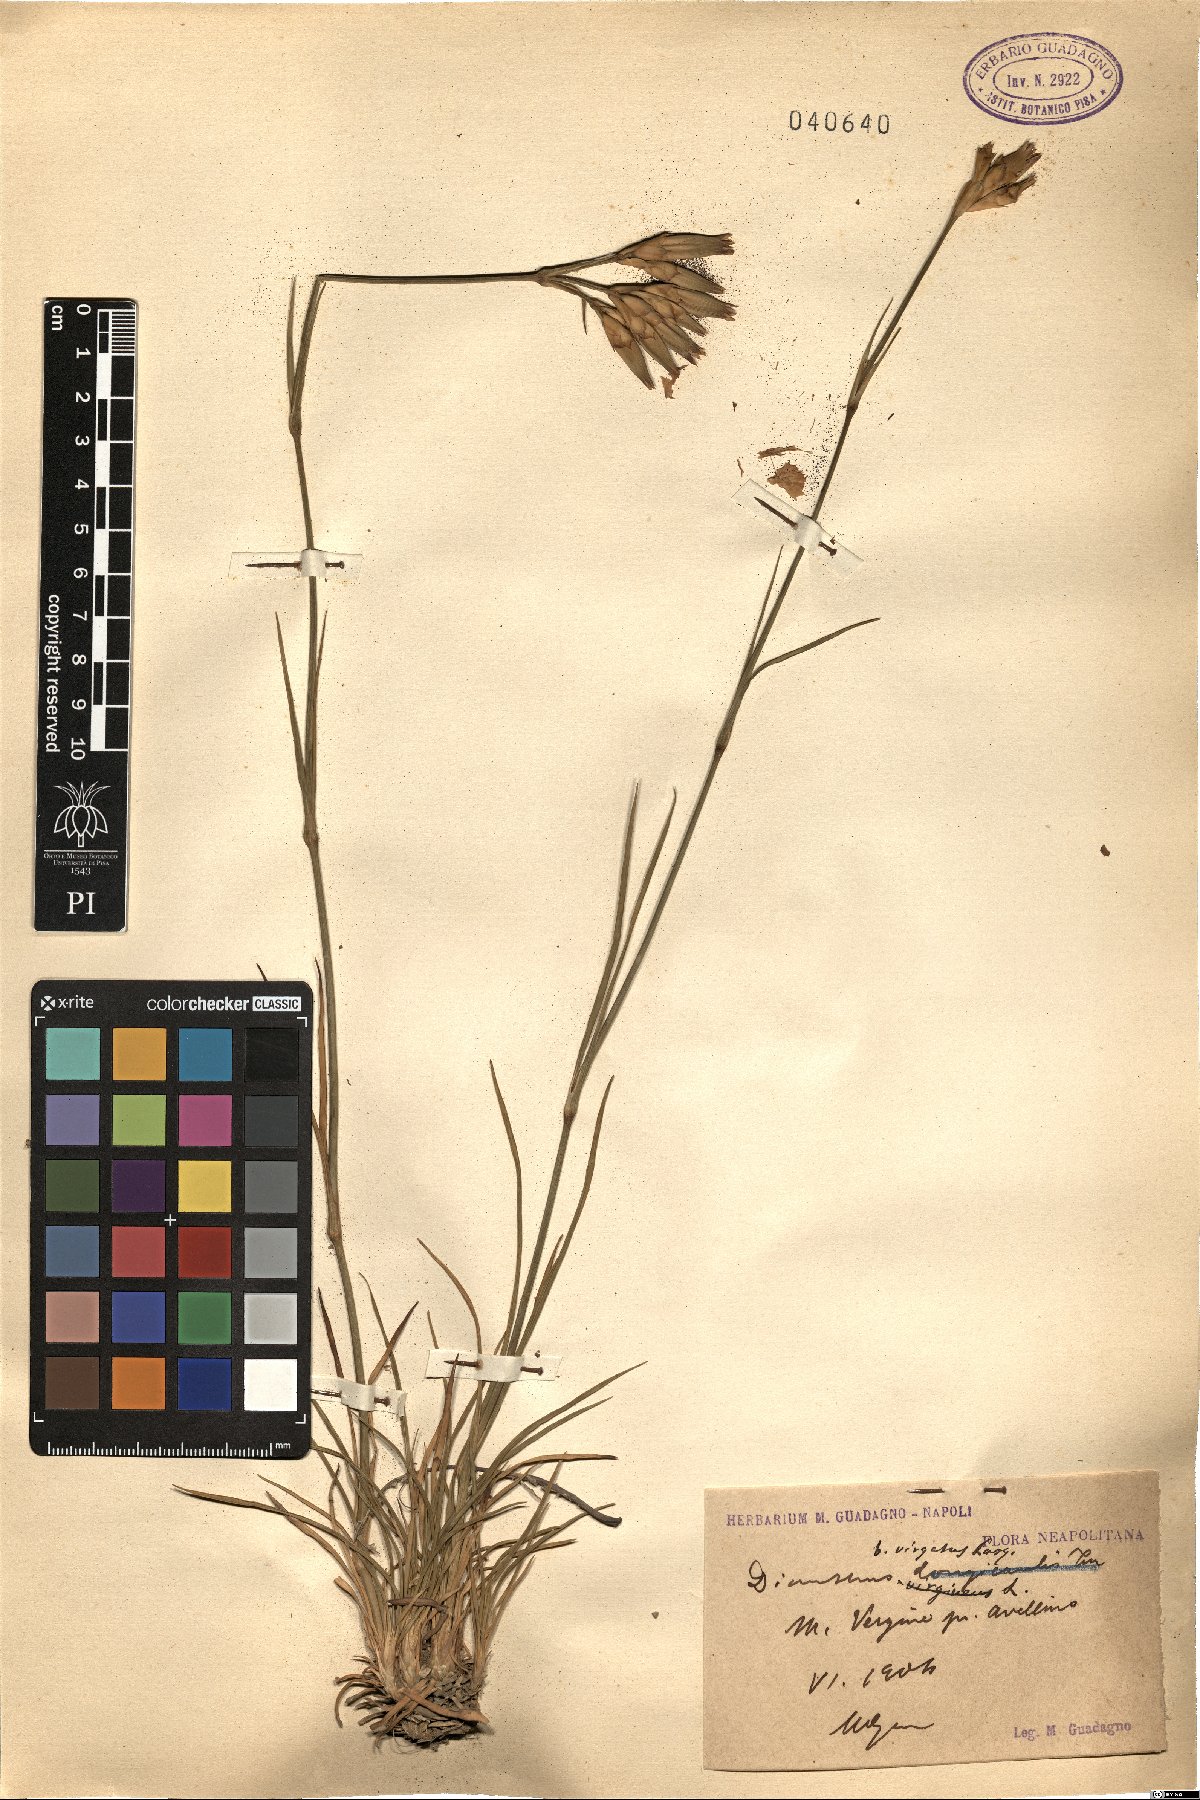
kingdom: Plantae
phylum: Tracheophyta
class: Magnoliopsida
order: Caryophyllales
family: Caryophyllaceae
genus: Dianthus
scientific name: Dianthus virgatus
